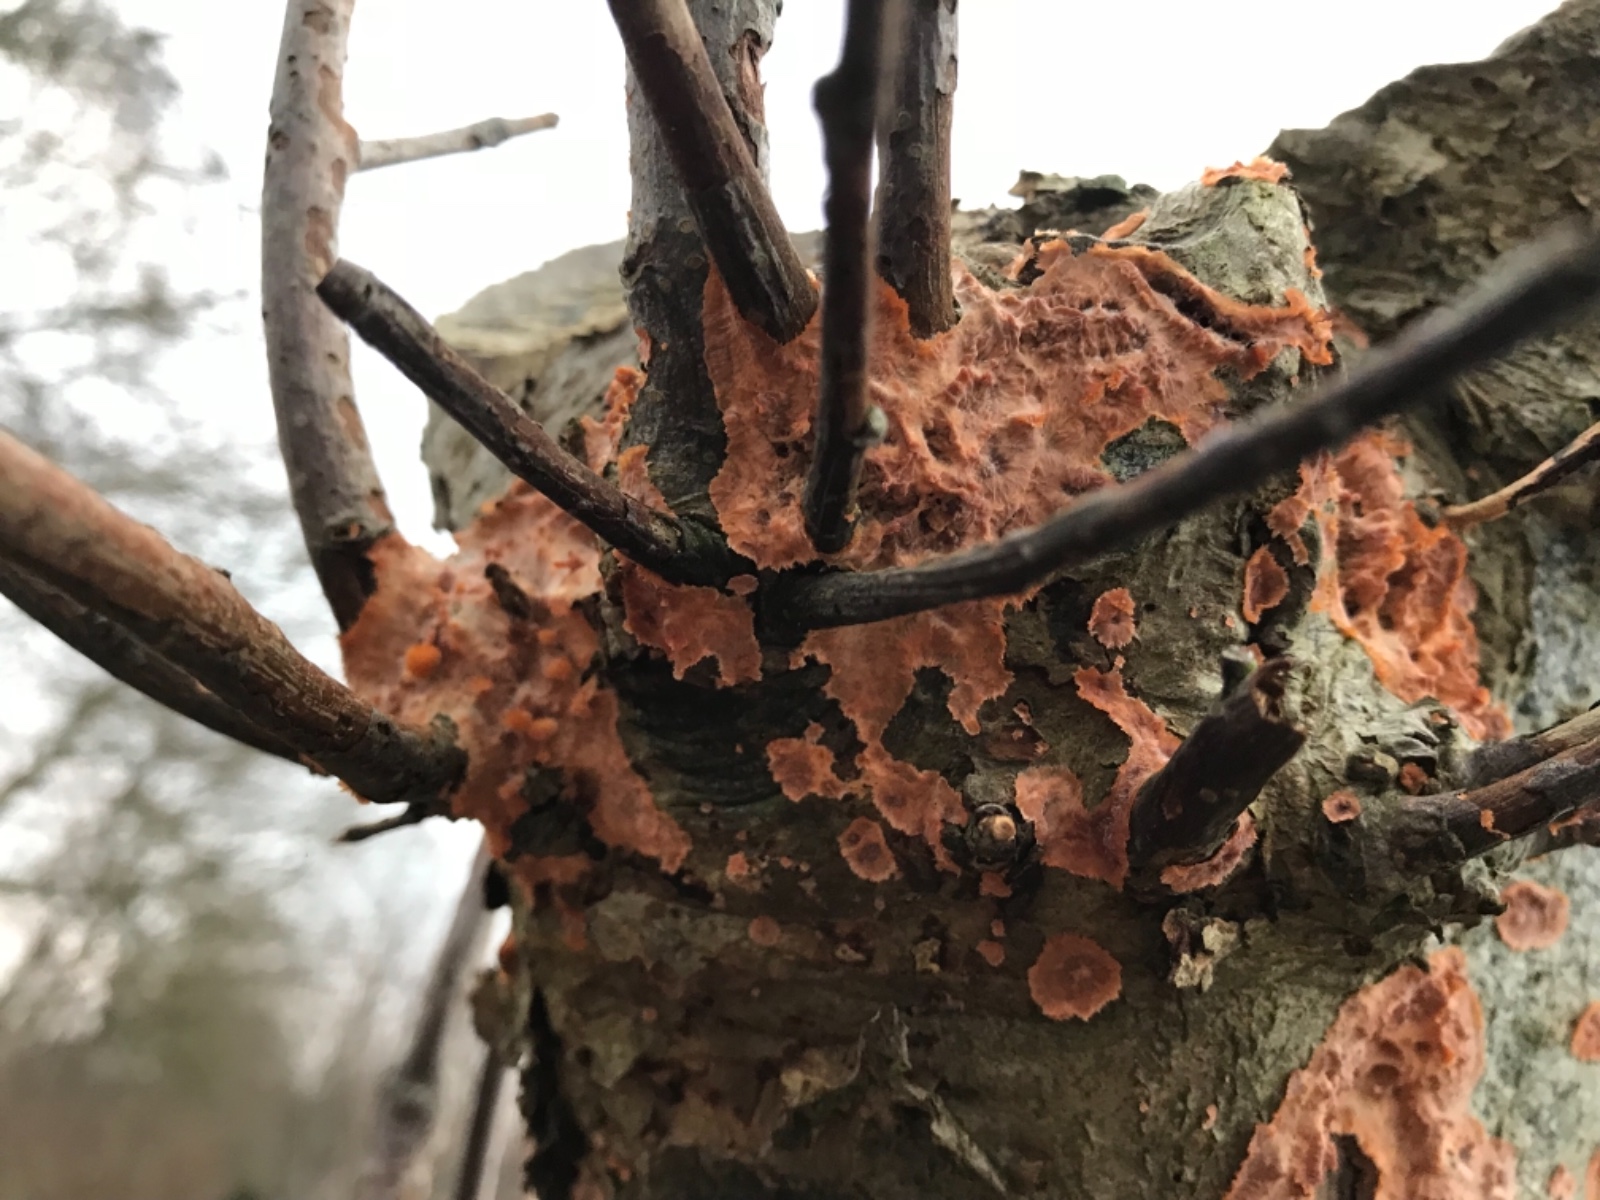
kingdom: Fungi
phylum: Basidiomycota
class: Agaricomycetes
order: Polyporales
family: Meruliaceae
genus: Phlebia
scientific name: Phlebia radiata
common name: stråle-åresvamp
